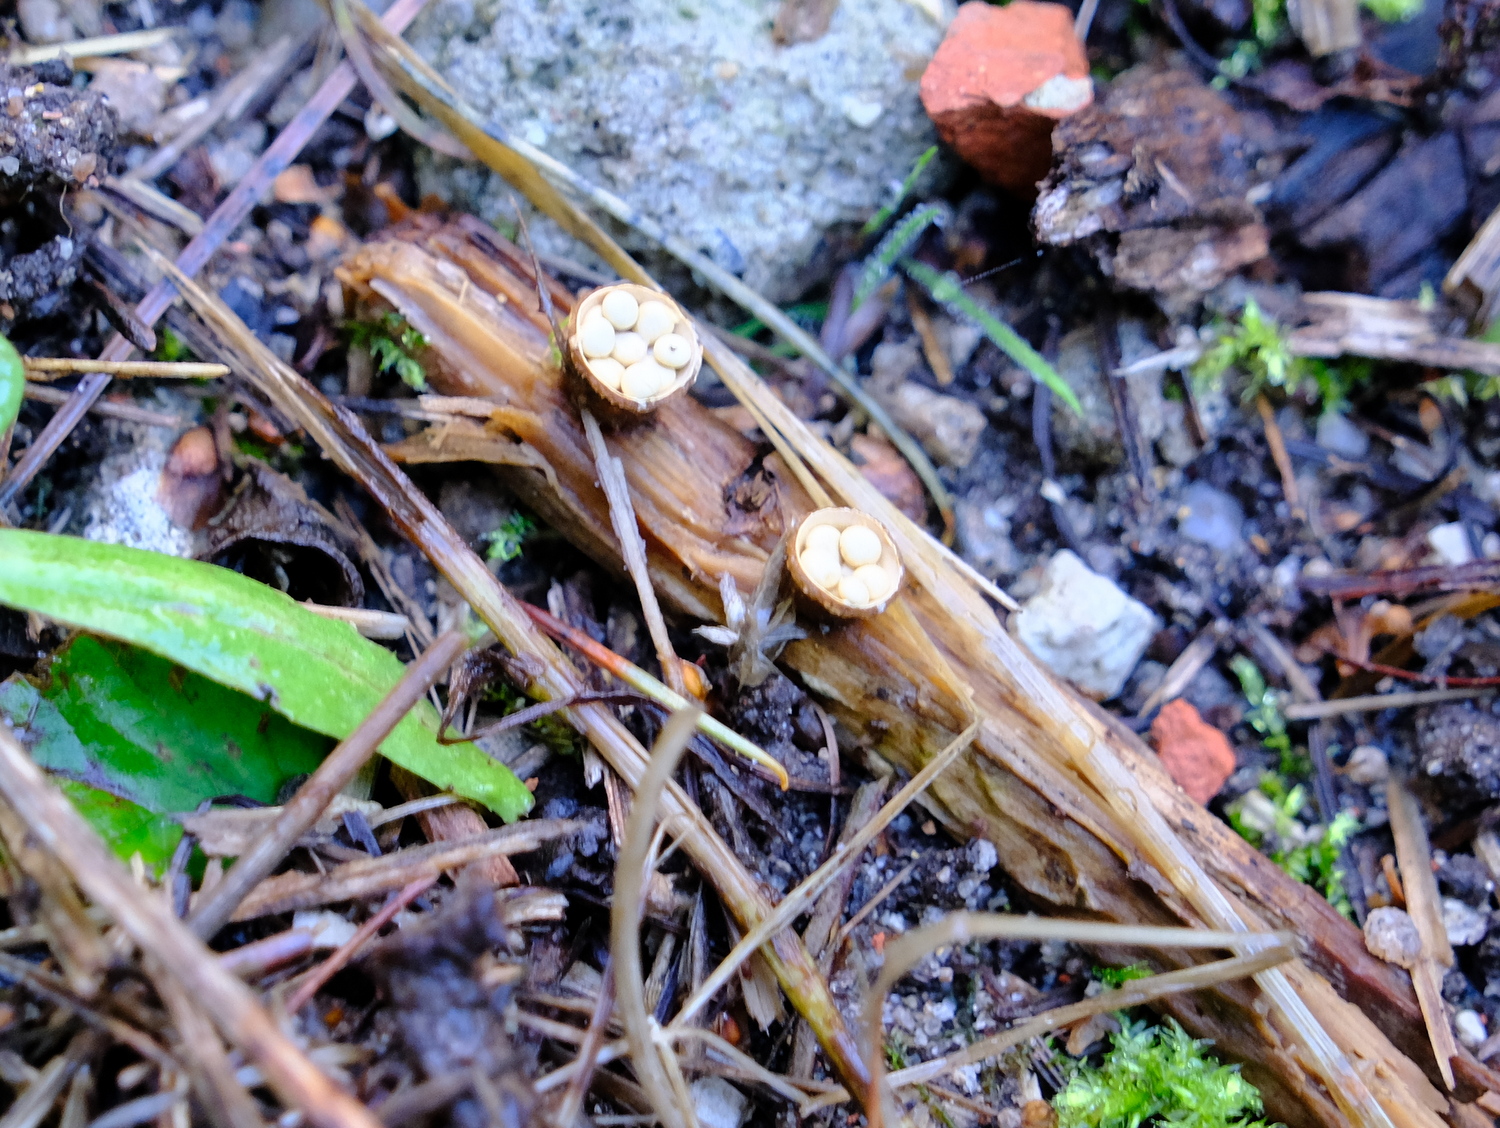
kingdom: Fungi
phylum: Basidiomycota
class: Agaricomycetes
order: Agaricales
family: Nidulariaceae
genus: Crucibulum
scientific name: Crucibulum crucibuliforme
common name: krukkesvamp
